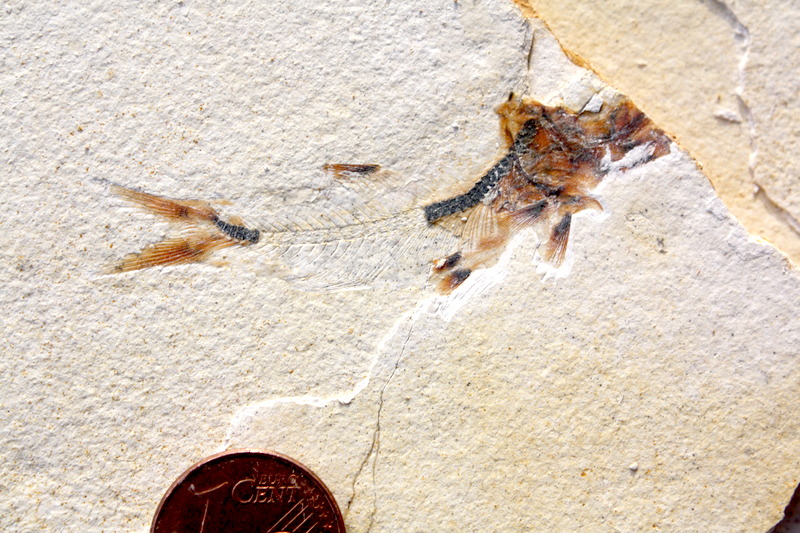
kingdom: Animalia
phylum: Chordata
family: Ascalaboidae
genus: Ebertichthys
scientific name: Ebertichthys ettlingensis
